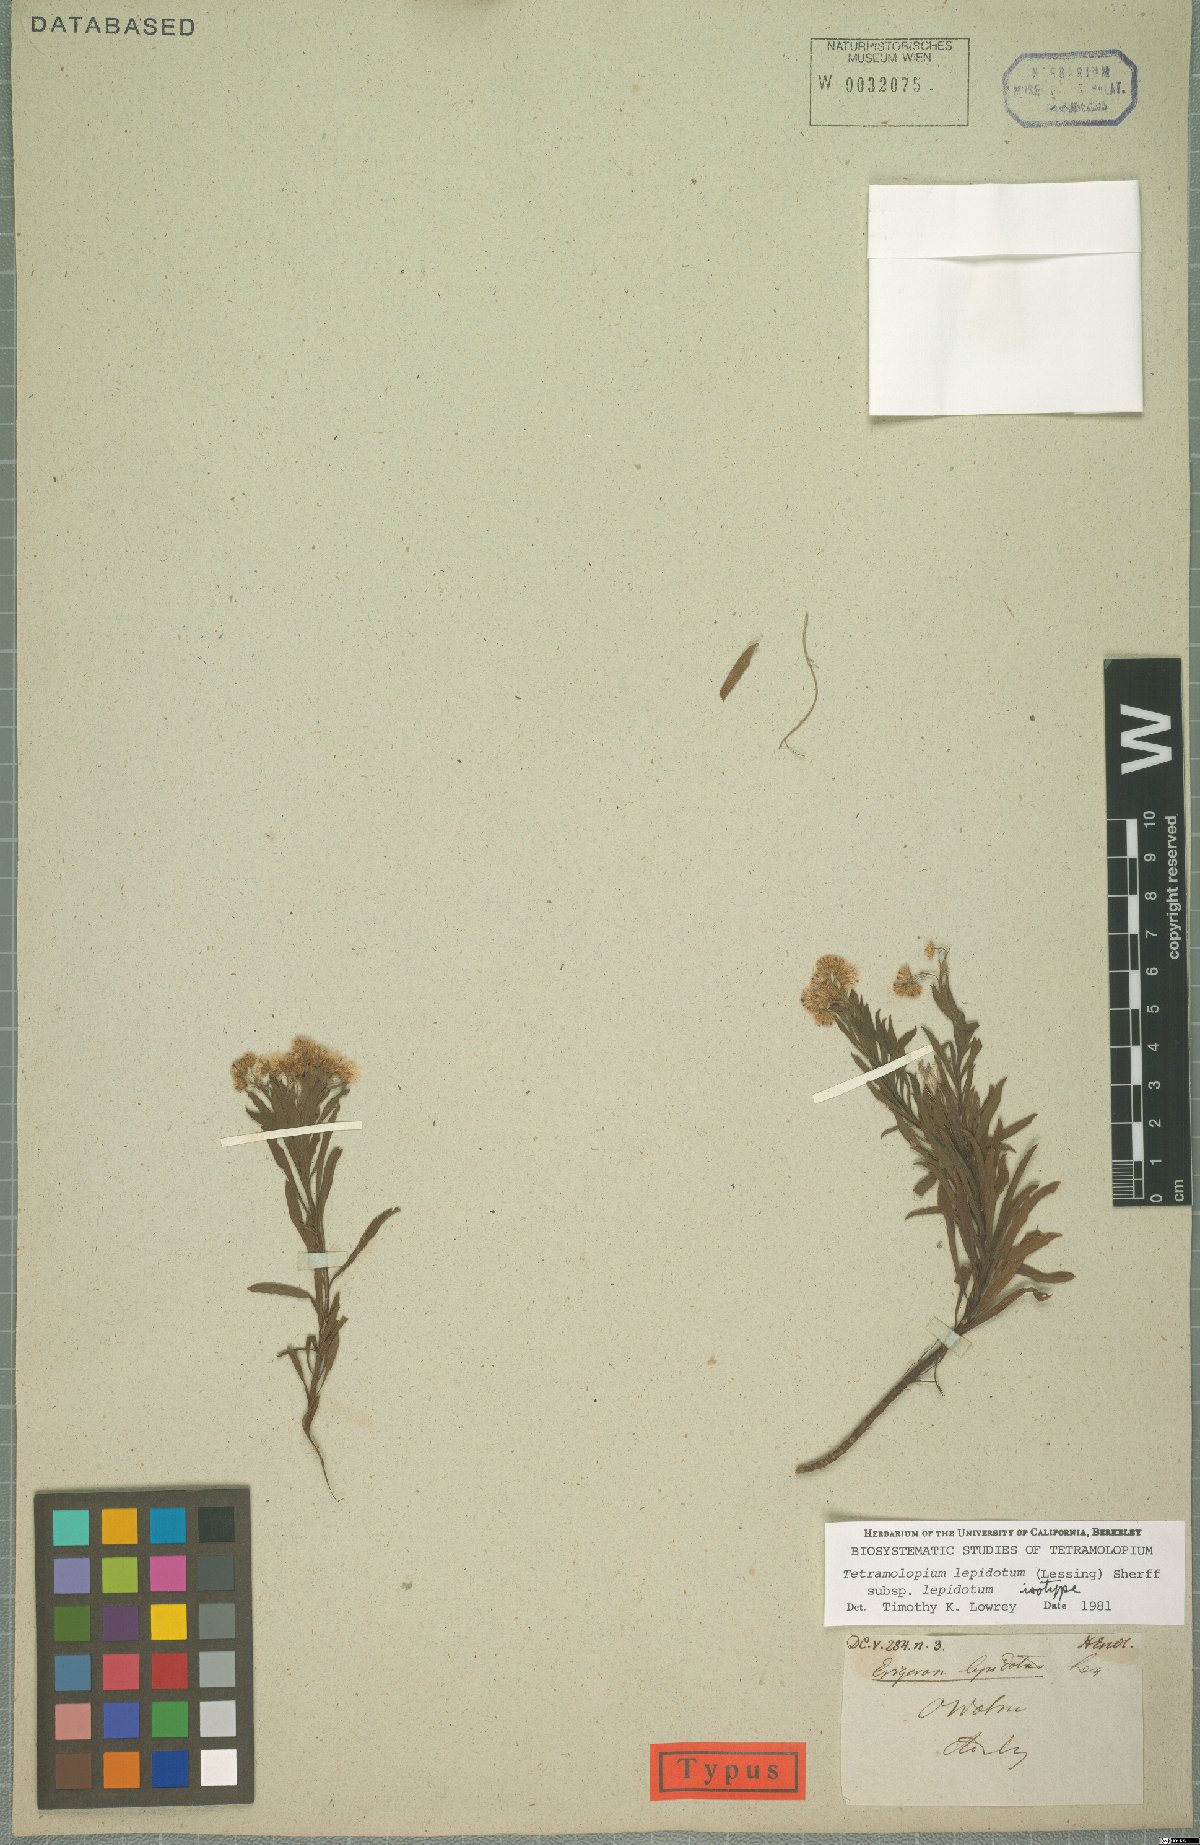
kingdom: Plantae
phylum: Tracheophyta
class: Magnoliopsida
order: Asterales
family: Asteraceae
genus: Tetramolopium
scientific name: Tetramolopium lepidotum
